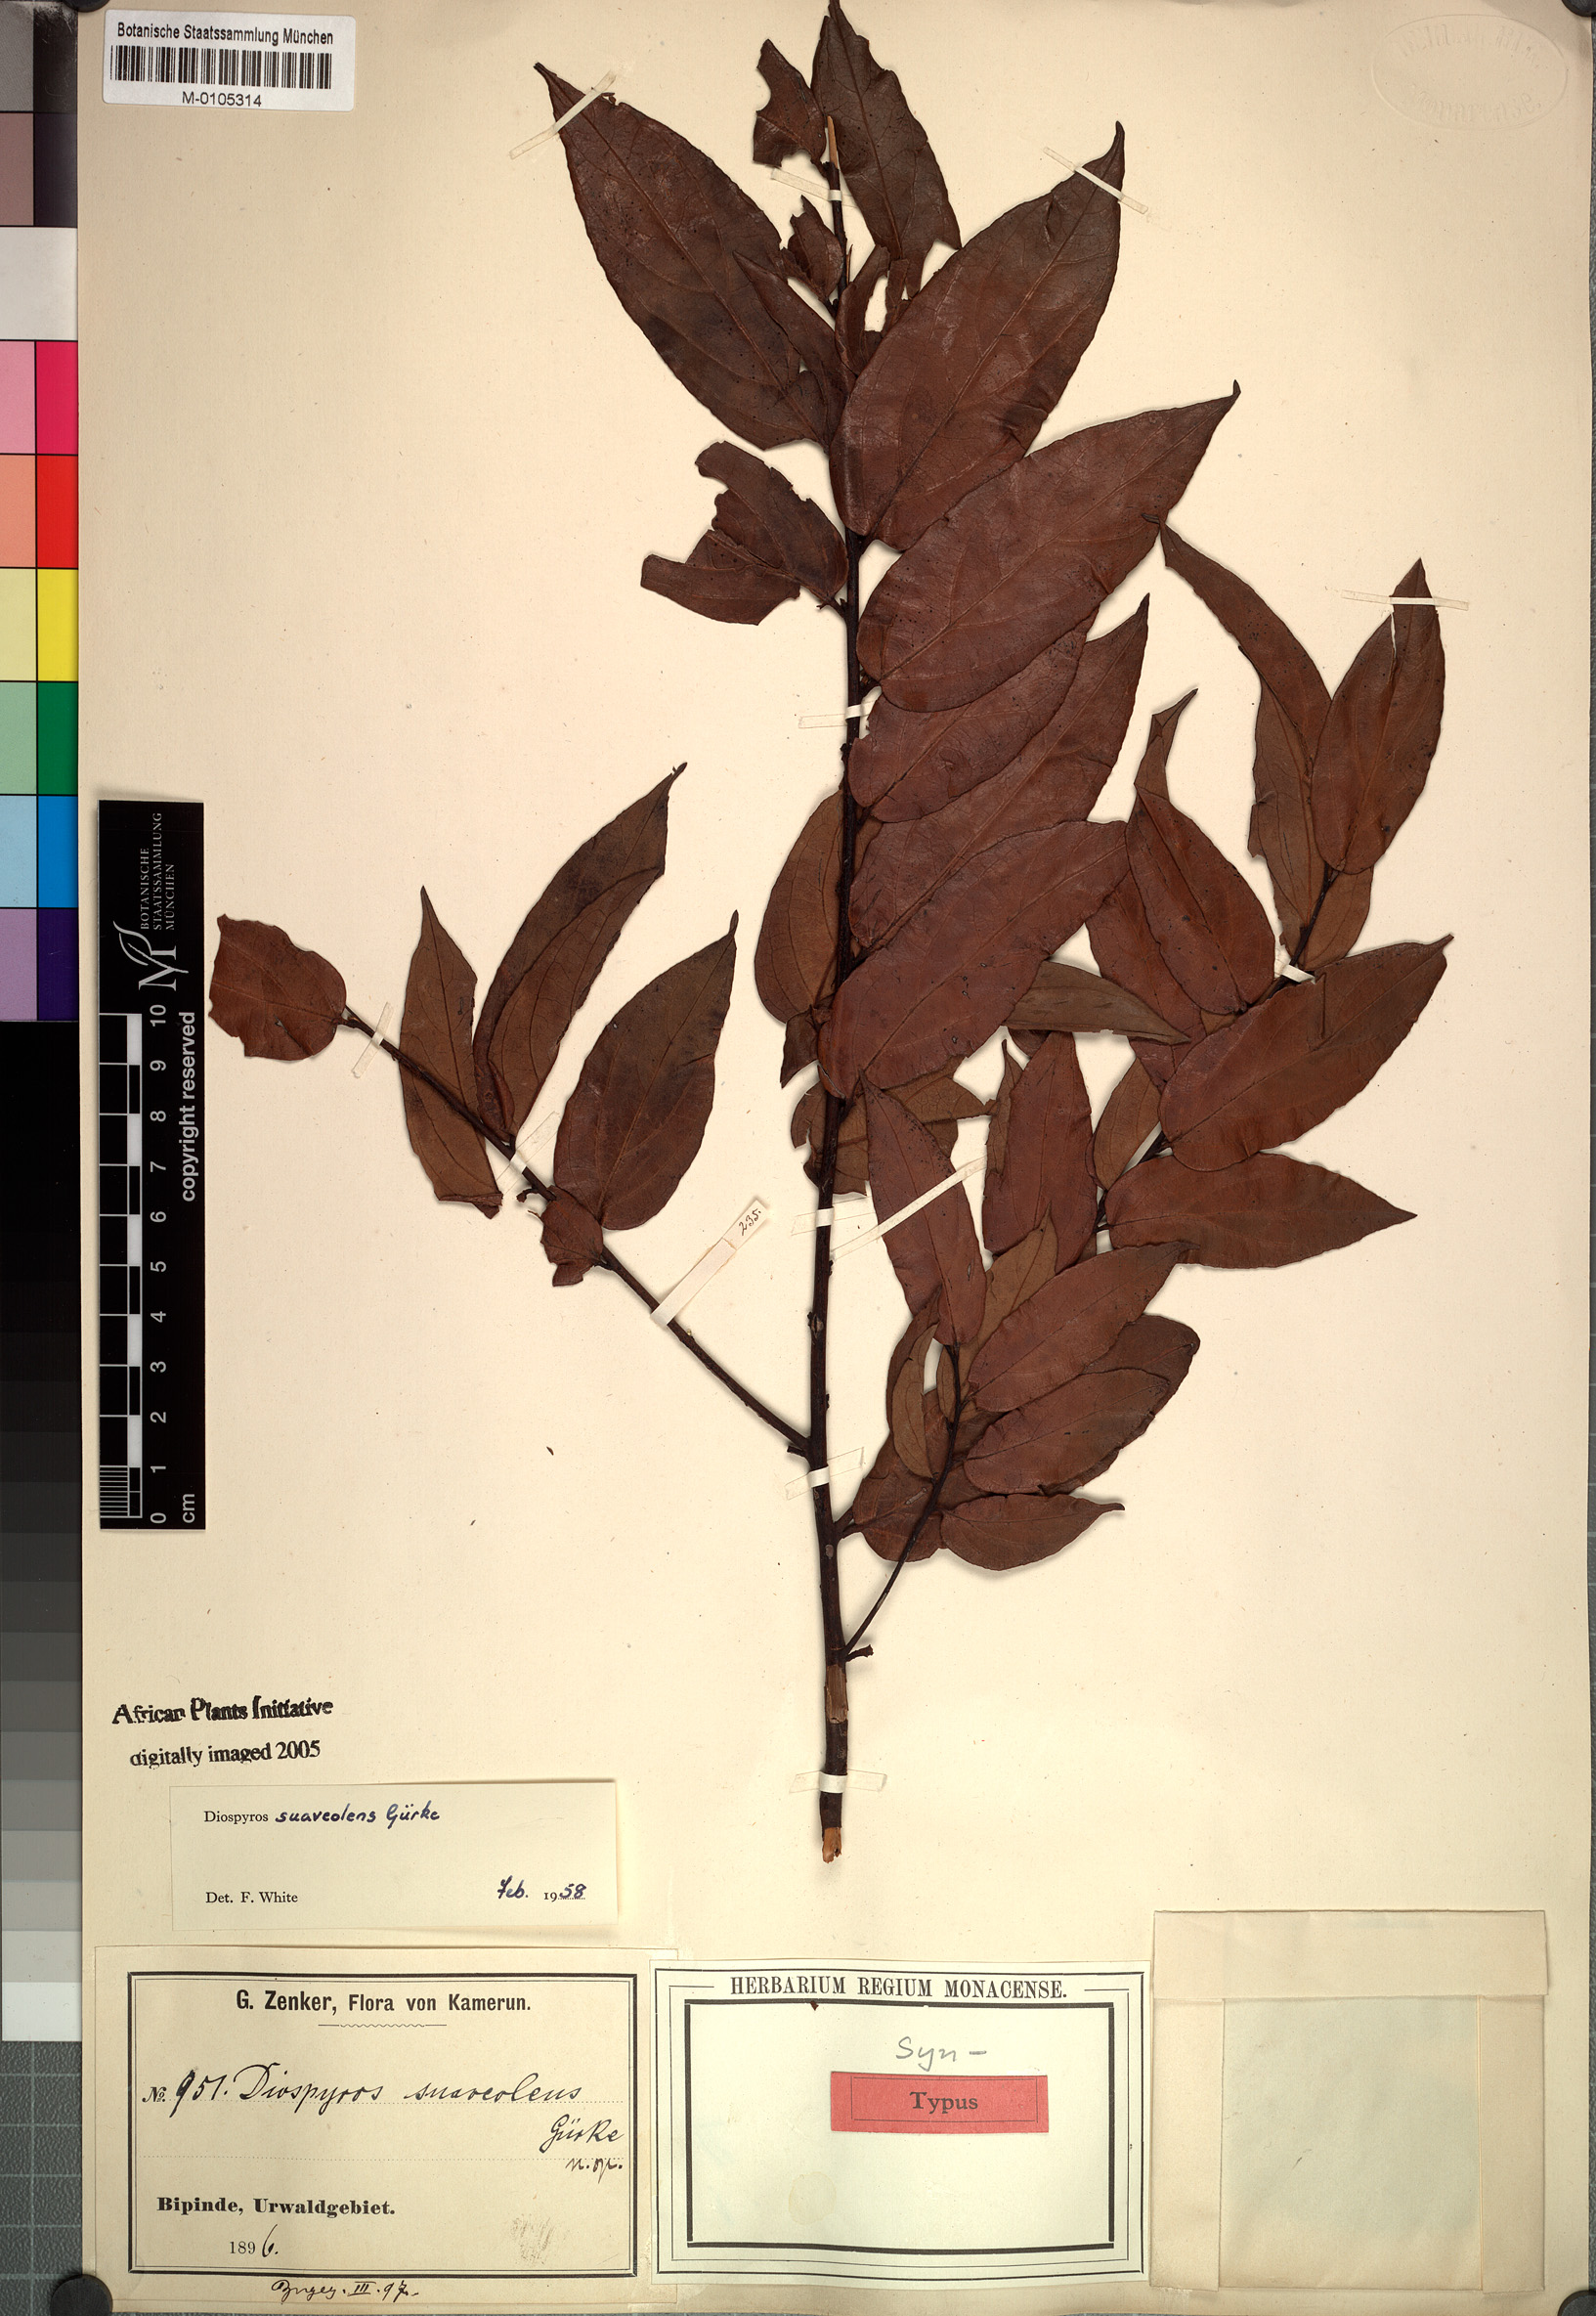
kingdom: Plantae
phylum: Tracheophyta
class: Magnoliopsida
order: Ericales
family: Ebenaceae
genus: Diospyros
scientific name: Diospyros suaveolens
